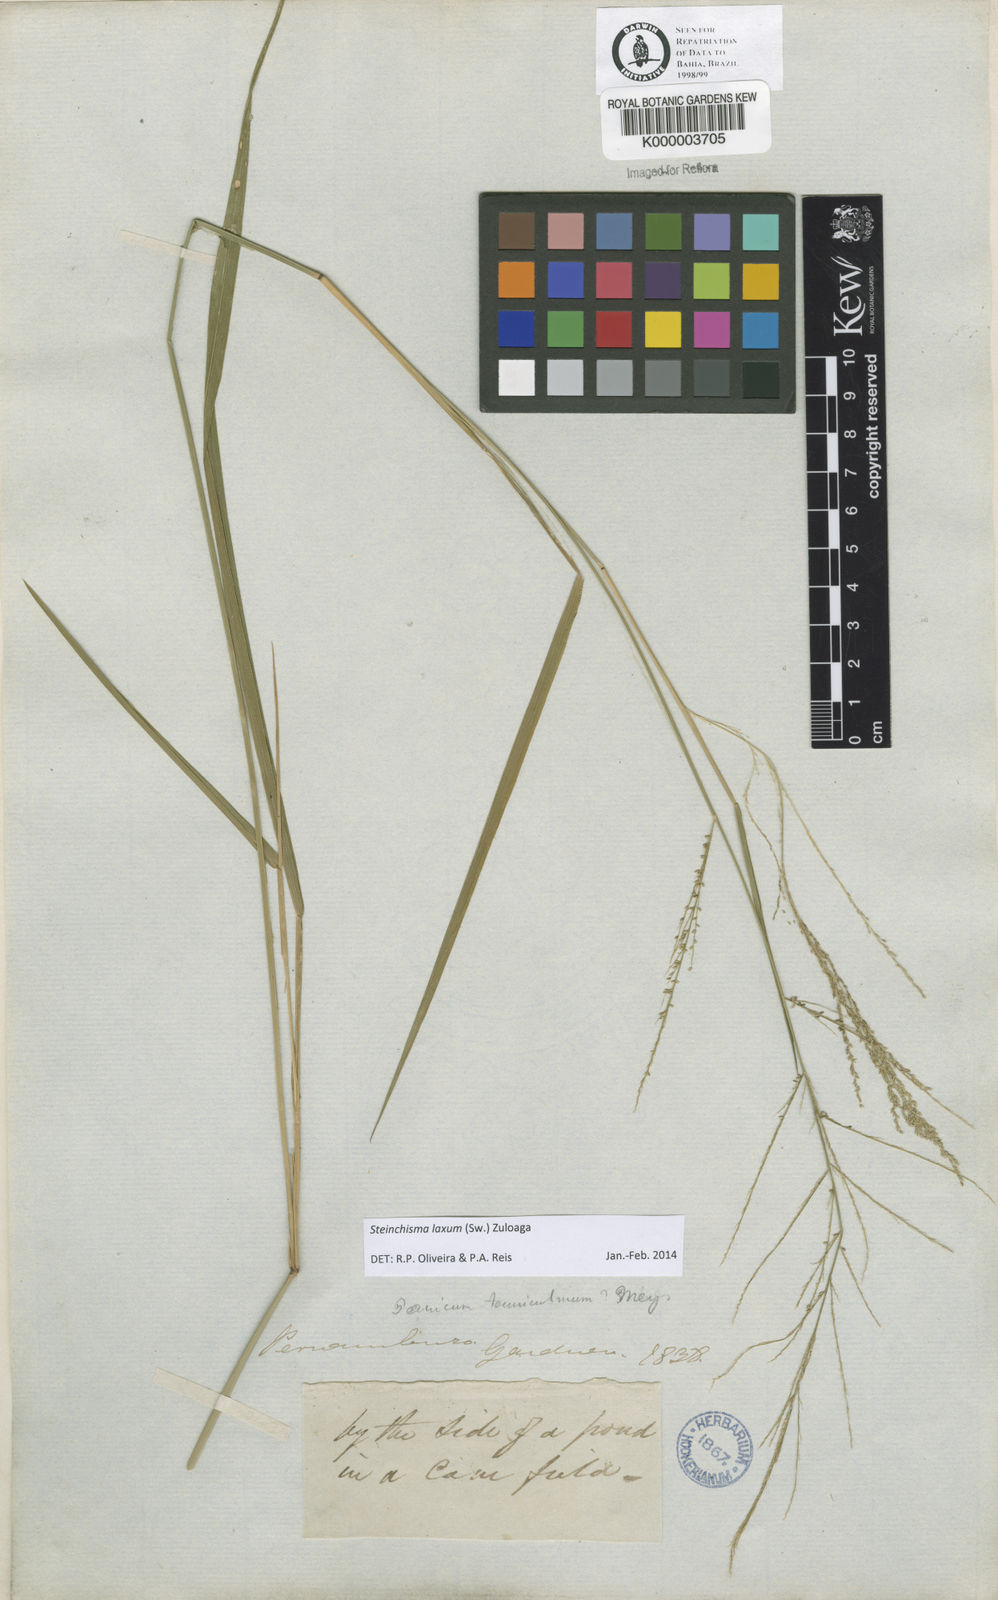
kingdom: Plantae
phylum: Tracheophyta
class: Liliopsida
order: Poales
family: Poaceae
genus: Panicum
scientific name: Panicum
